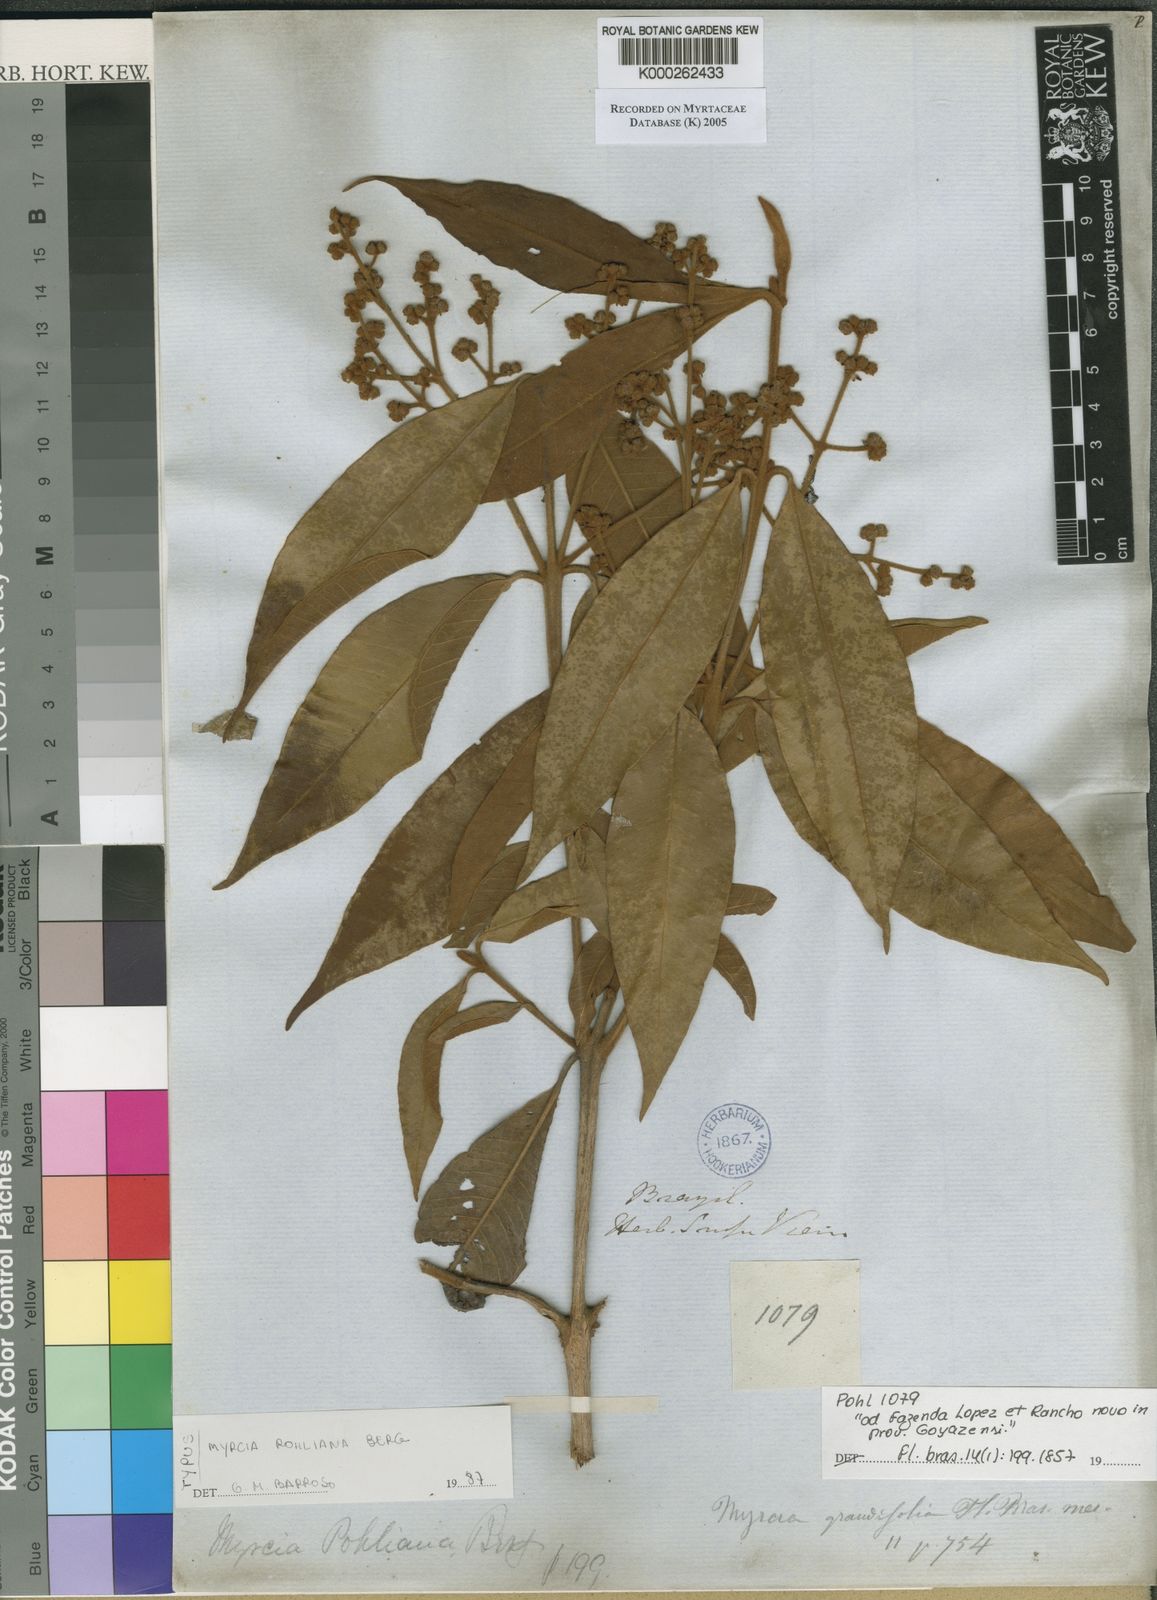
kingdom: Plantae
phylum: Tracheophyta
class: Magnoliopsida
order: Myrtales
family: Myrtaceae
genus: Myrcia
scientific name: Myrcia splendens
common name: Surinam cherry
